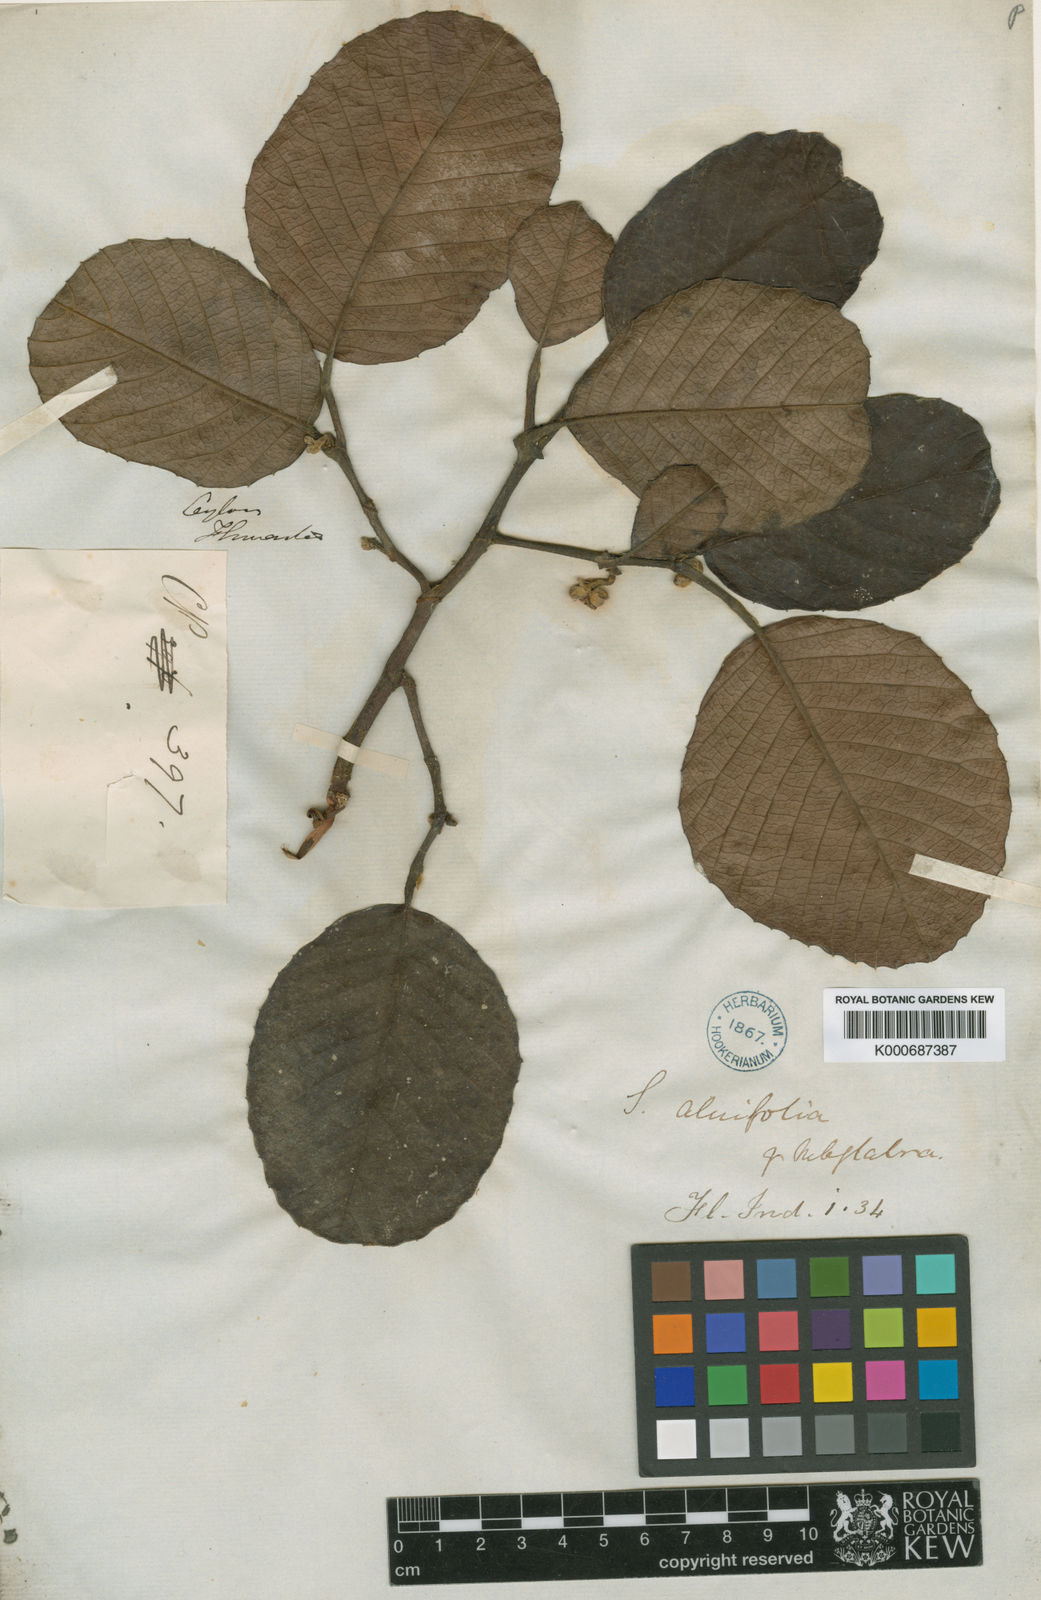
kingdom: Plantae
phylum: Tracheophyta
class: Magnoliopsida
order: Dilleniales
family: Dilleniaceae
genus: Schumacheria
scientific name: Schumacheria alnifolia
